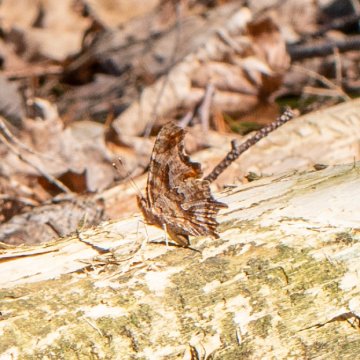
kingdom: Animalia
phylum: Arthropoda
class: Insecta
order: Lepidoptera
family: Nymphalidae
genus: Polygonia
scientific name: Polygonia comma
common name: Eastern Comma
